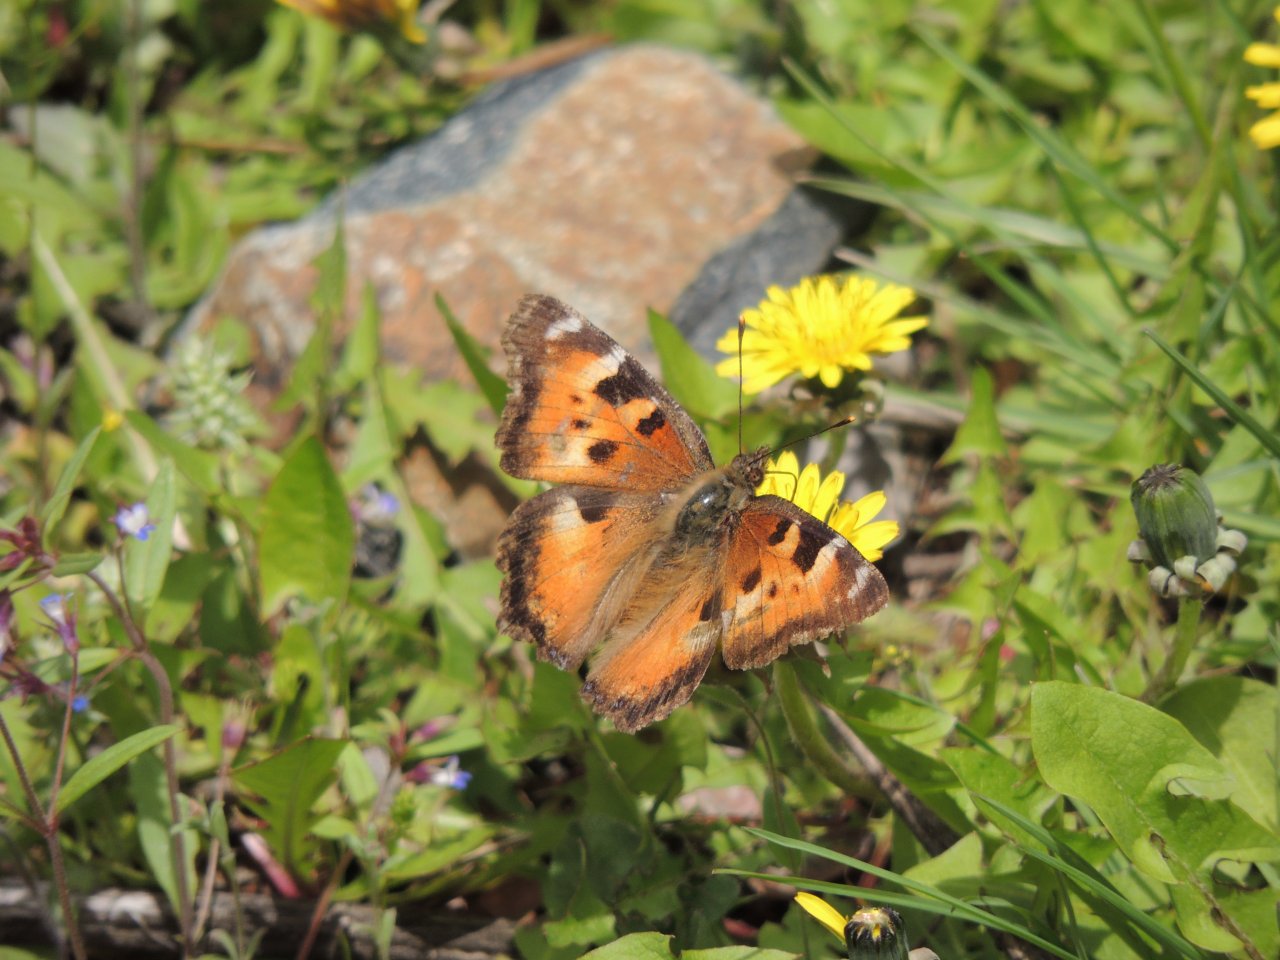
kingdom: Animalia
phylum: Arthropoda
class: Insecta
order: Lepidoptera
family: Nymphalidae
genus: Nymphalis
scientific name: Nymphalis californica
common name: California Tortoiseshell
